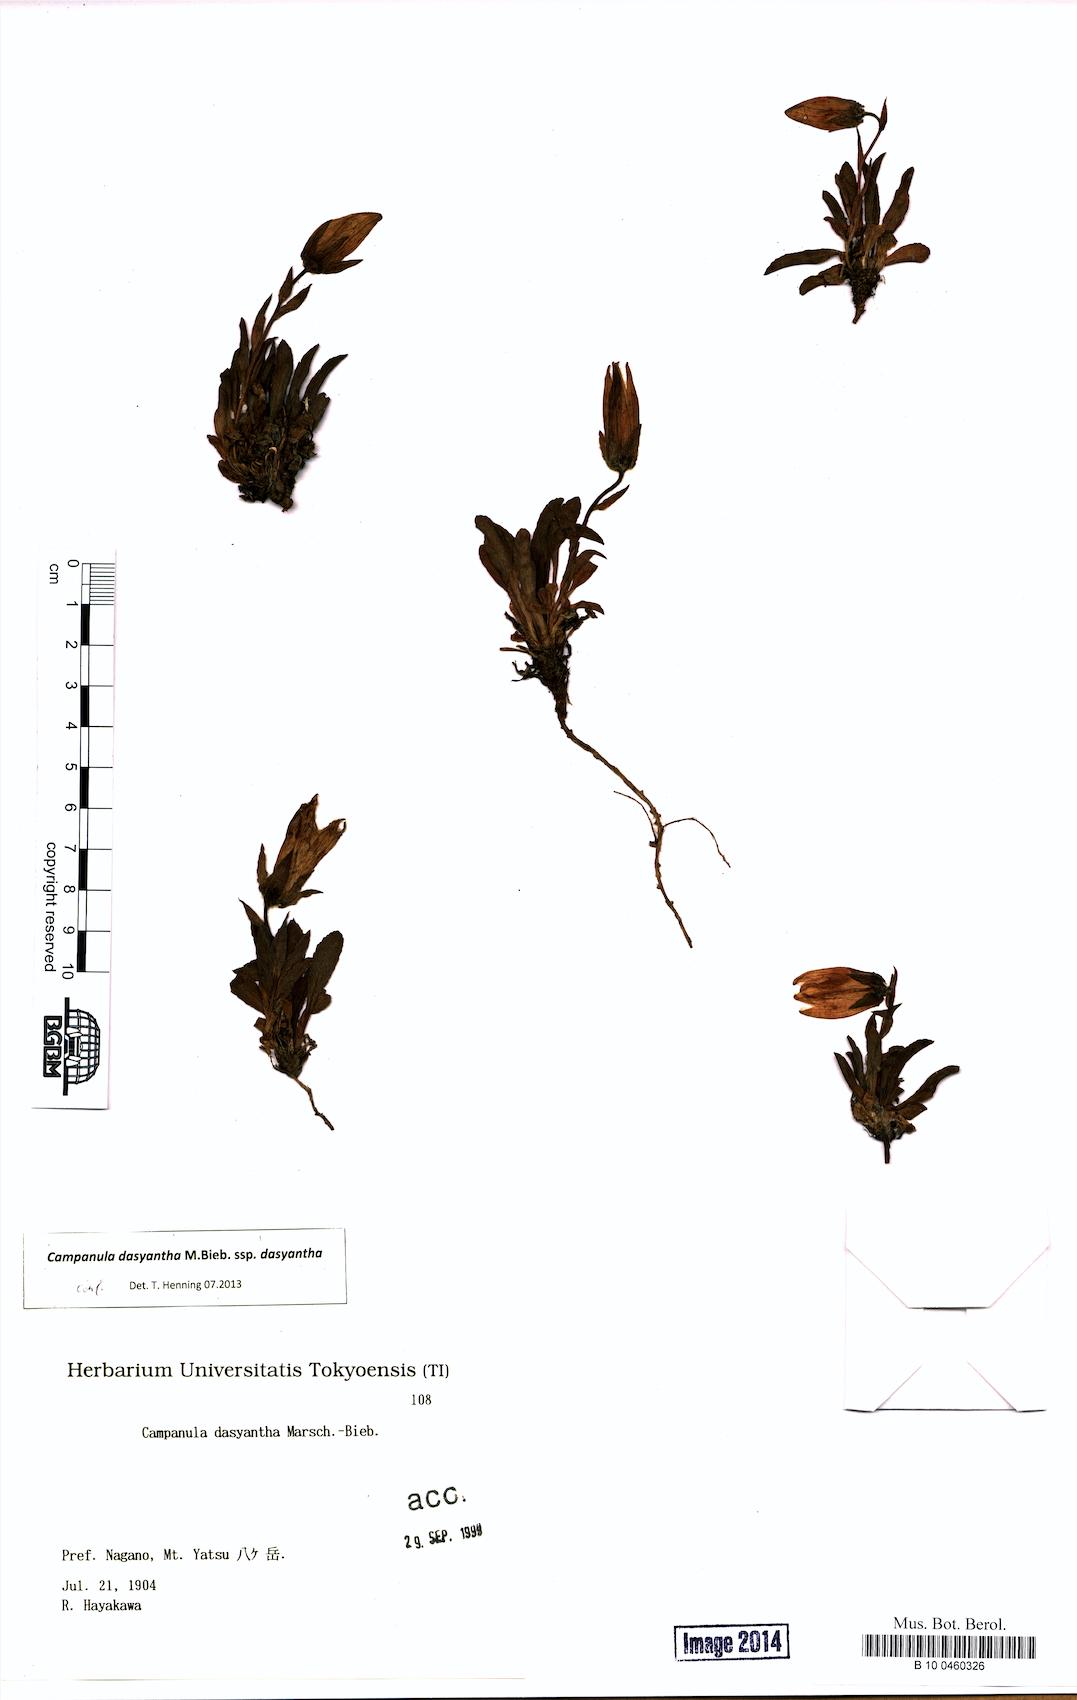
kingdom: Plantae
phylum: Tracheophyta
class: Magnoliopsida
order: Asterales
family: Campanulaceae
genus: Campanula
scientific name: Campanula dasyantha
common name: Hairyflower bellflower
